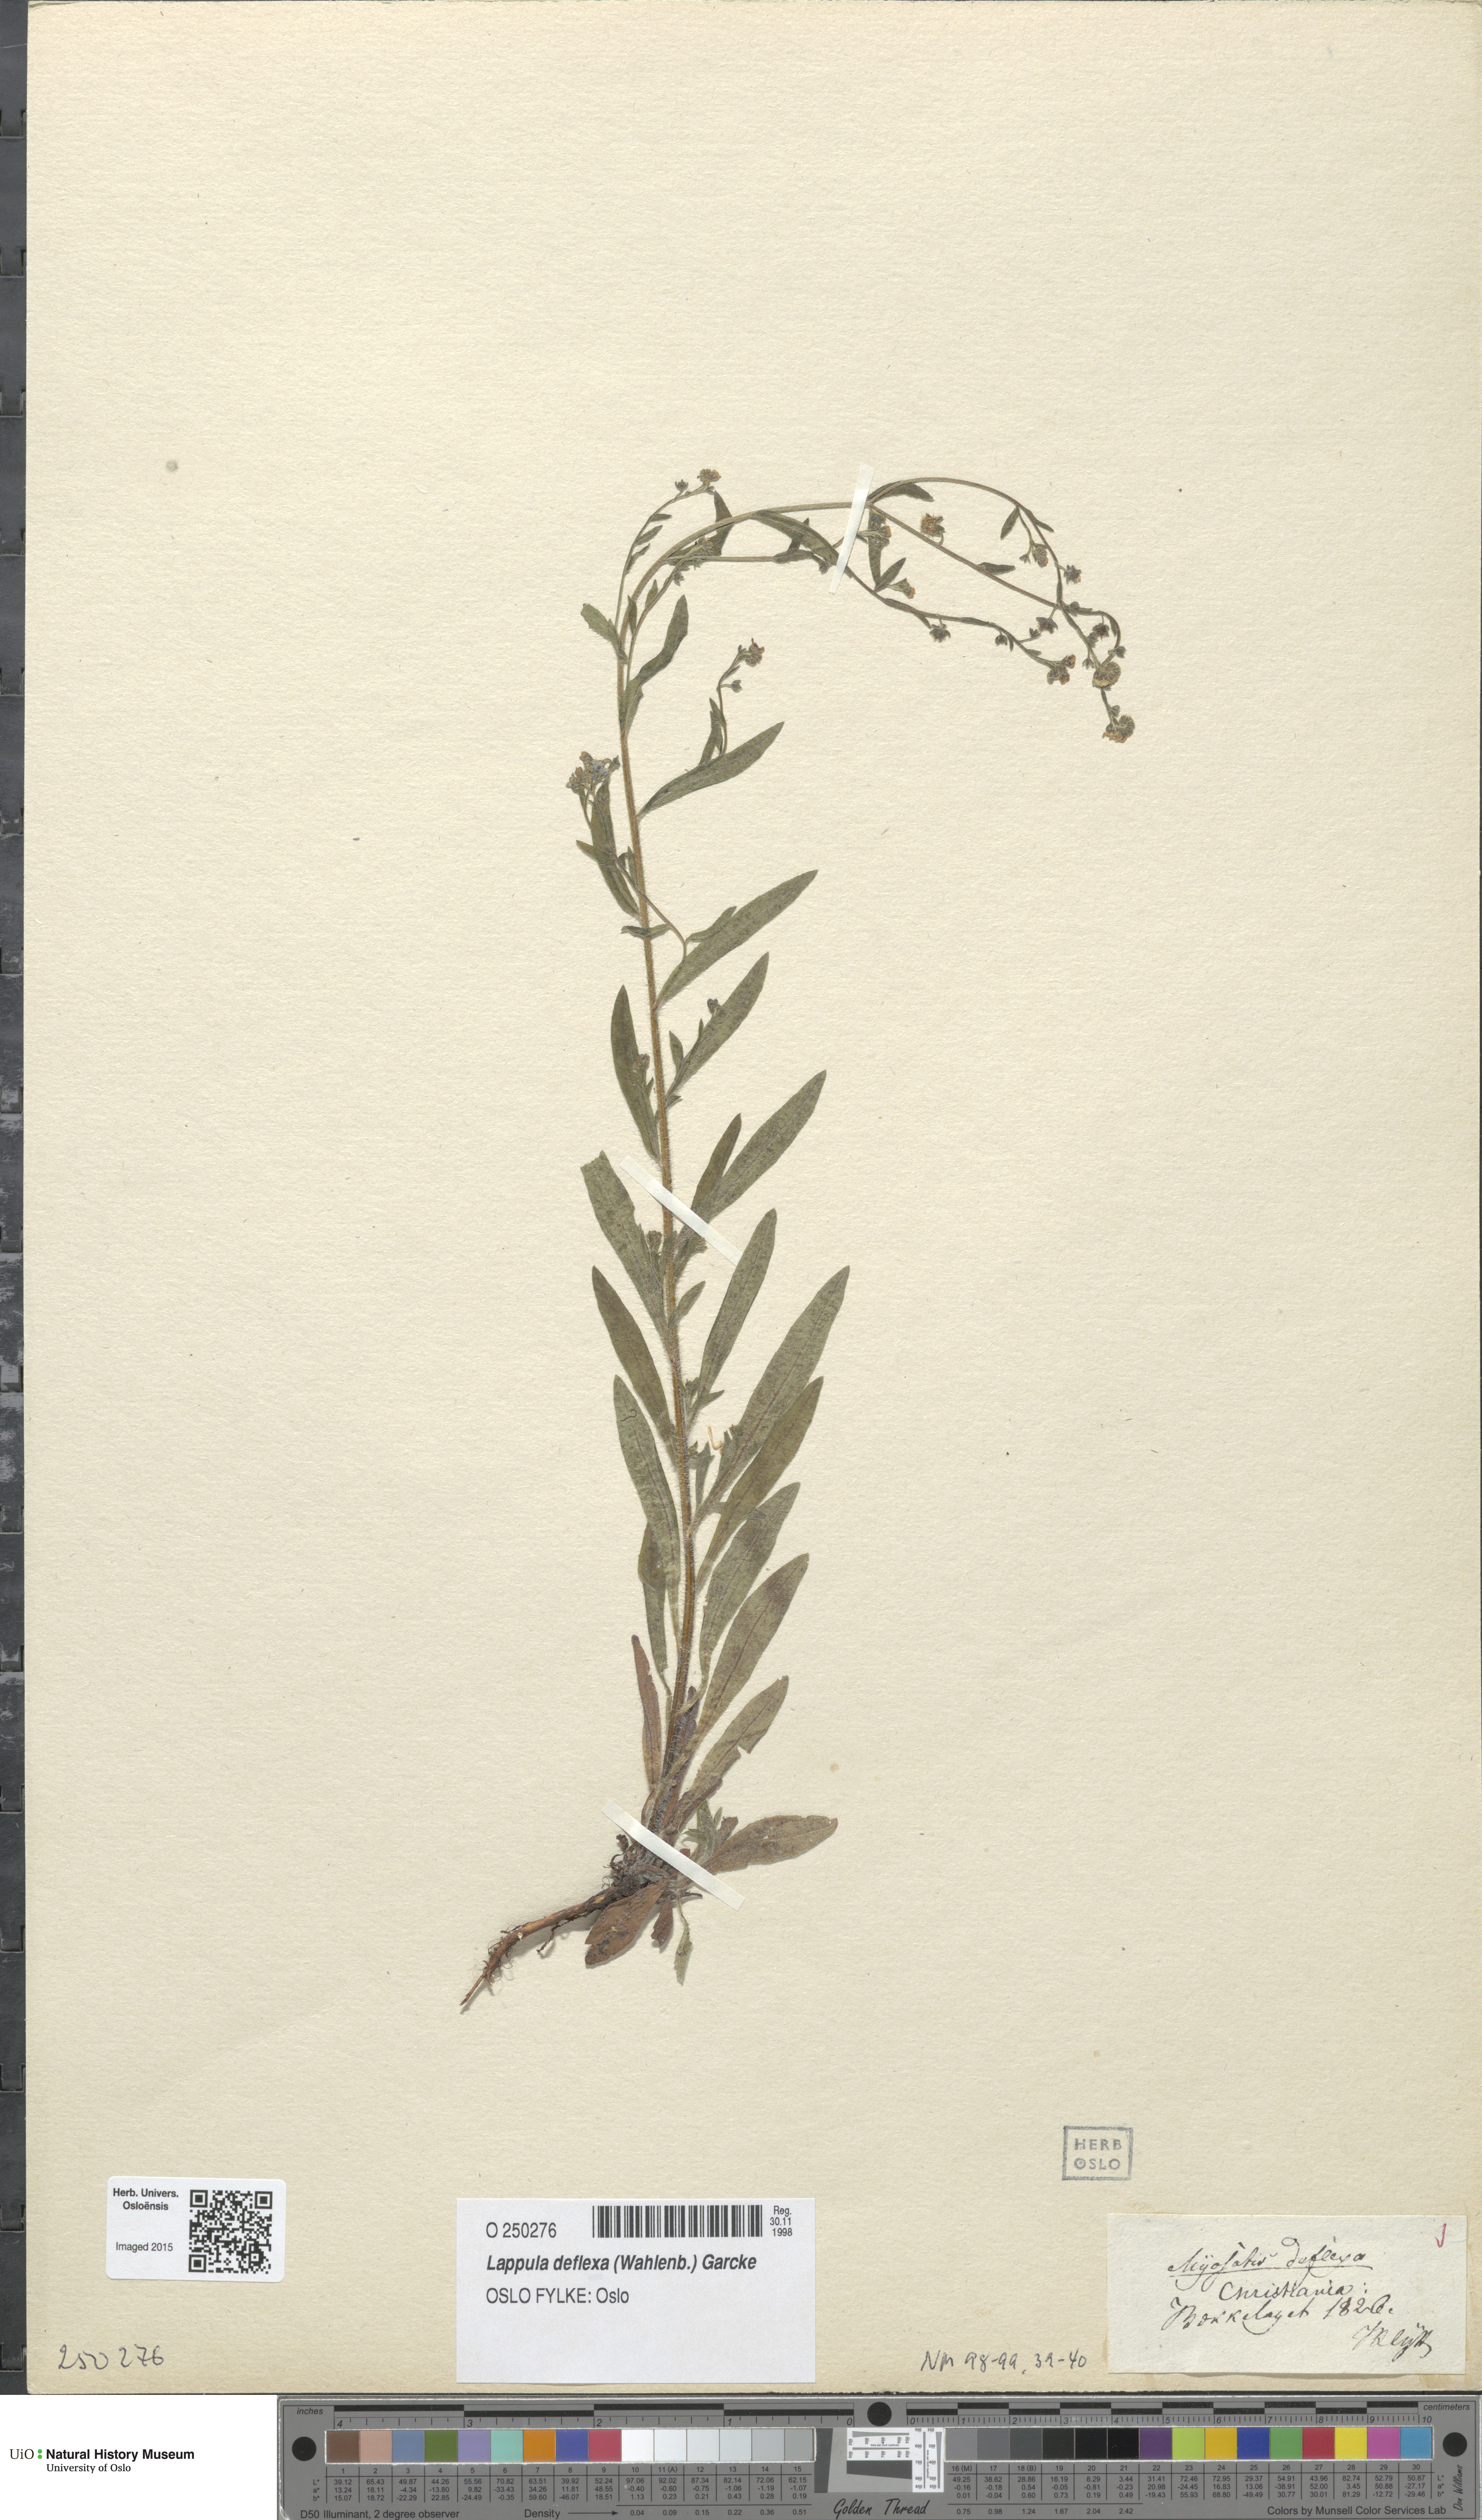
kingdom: Plantae
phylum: Tracheophyta
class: Magnoliopsida
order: Boraginales
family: Boraginaceae
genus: Hackelia
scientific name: Hackelia deflexa
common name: Nodding stickseed
